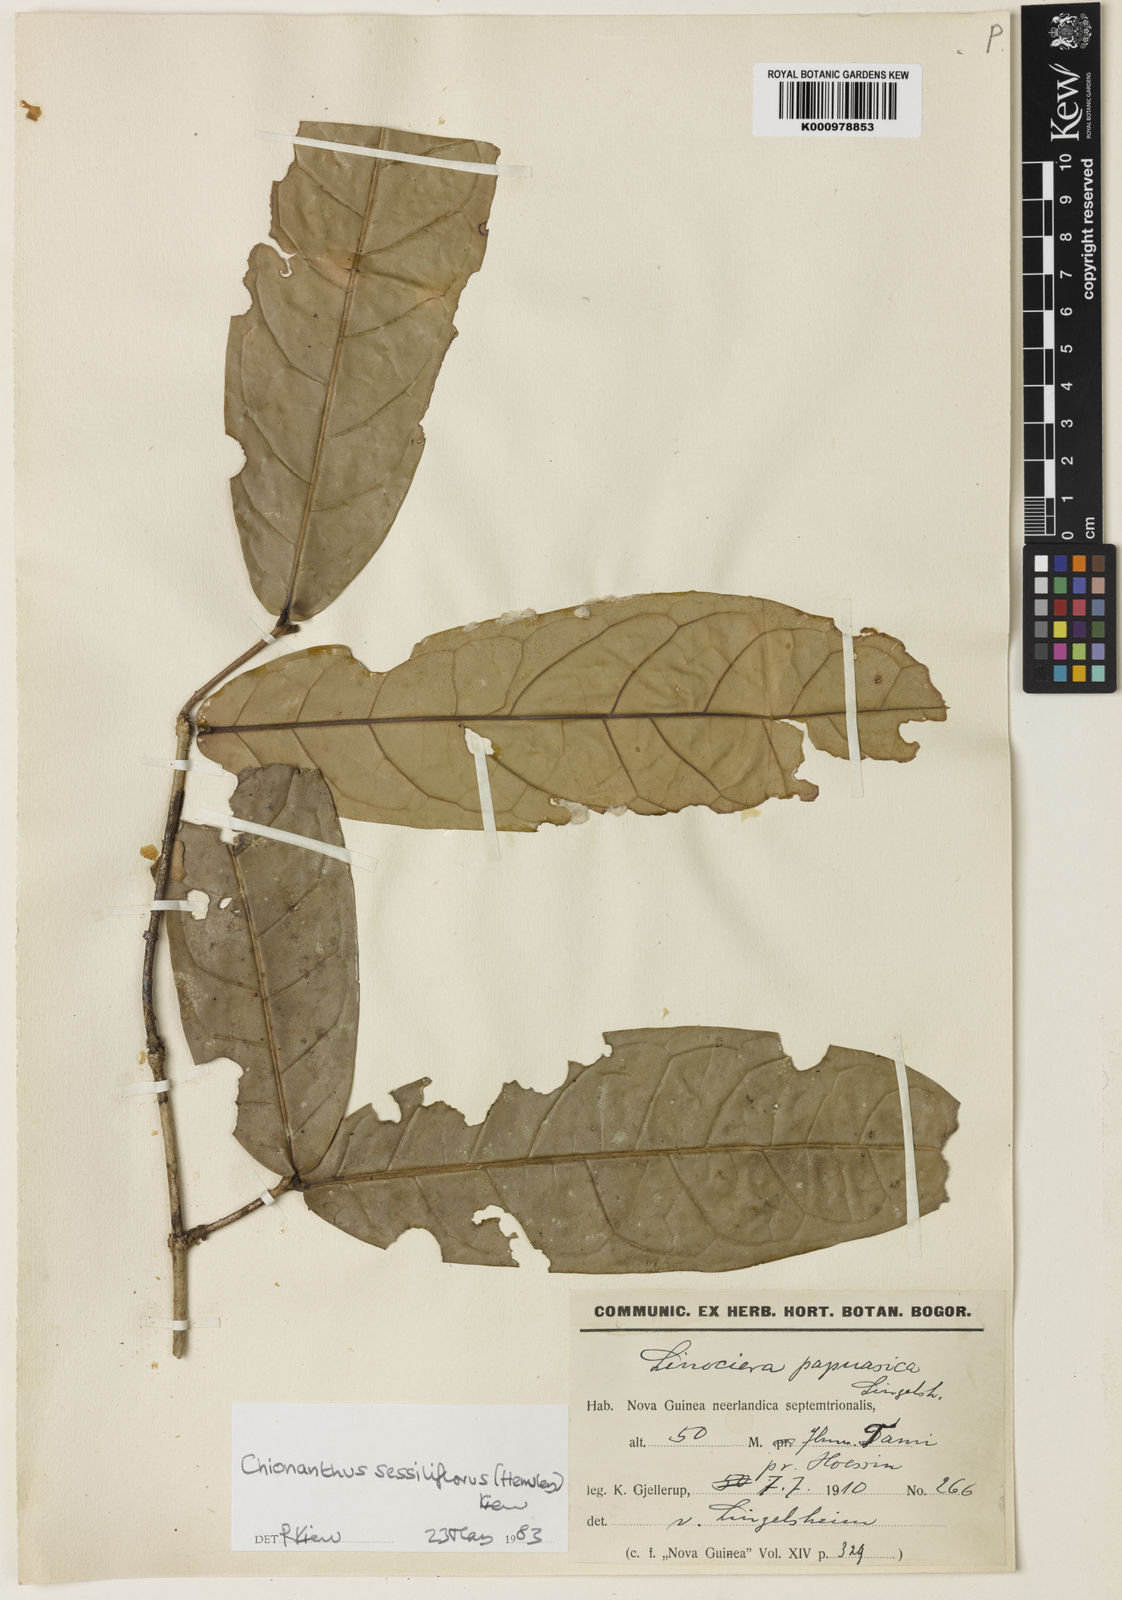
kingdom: Plantae
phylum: Tracheophyta
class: Magnoliopsida
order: Lamiales
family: Oleaceae
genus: Chionanthus
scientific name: Chionanthus sessiliflorus
